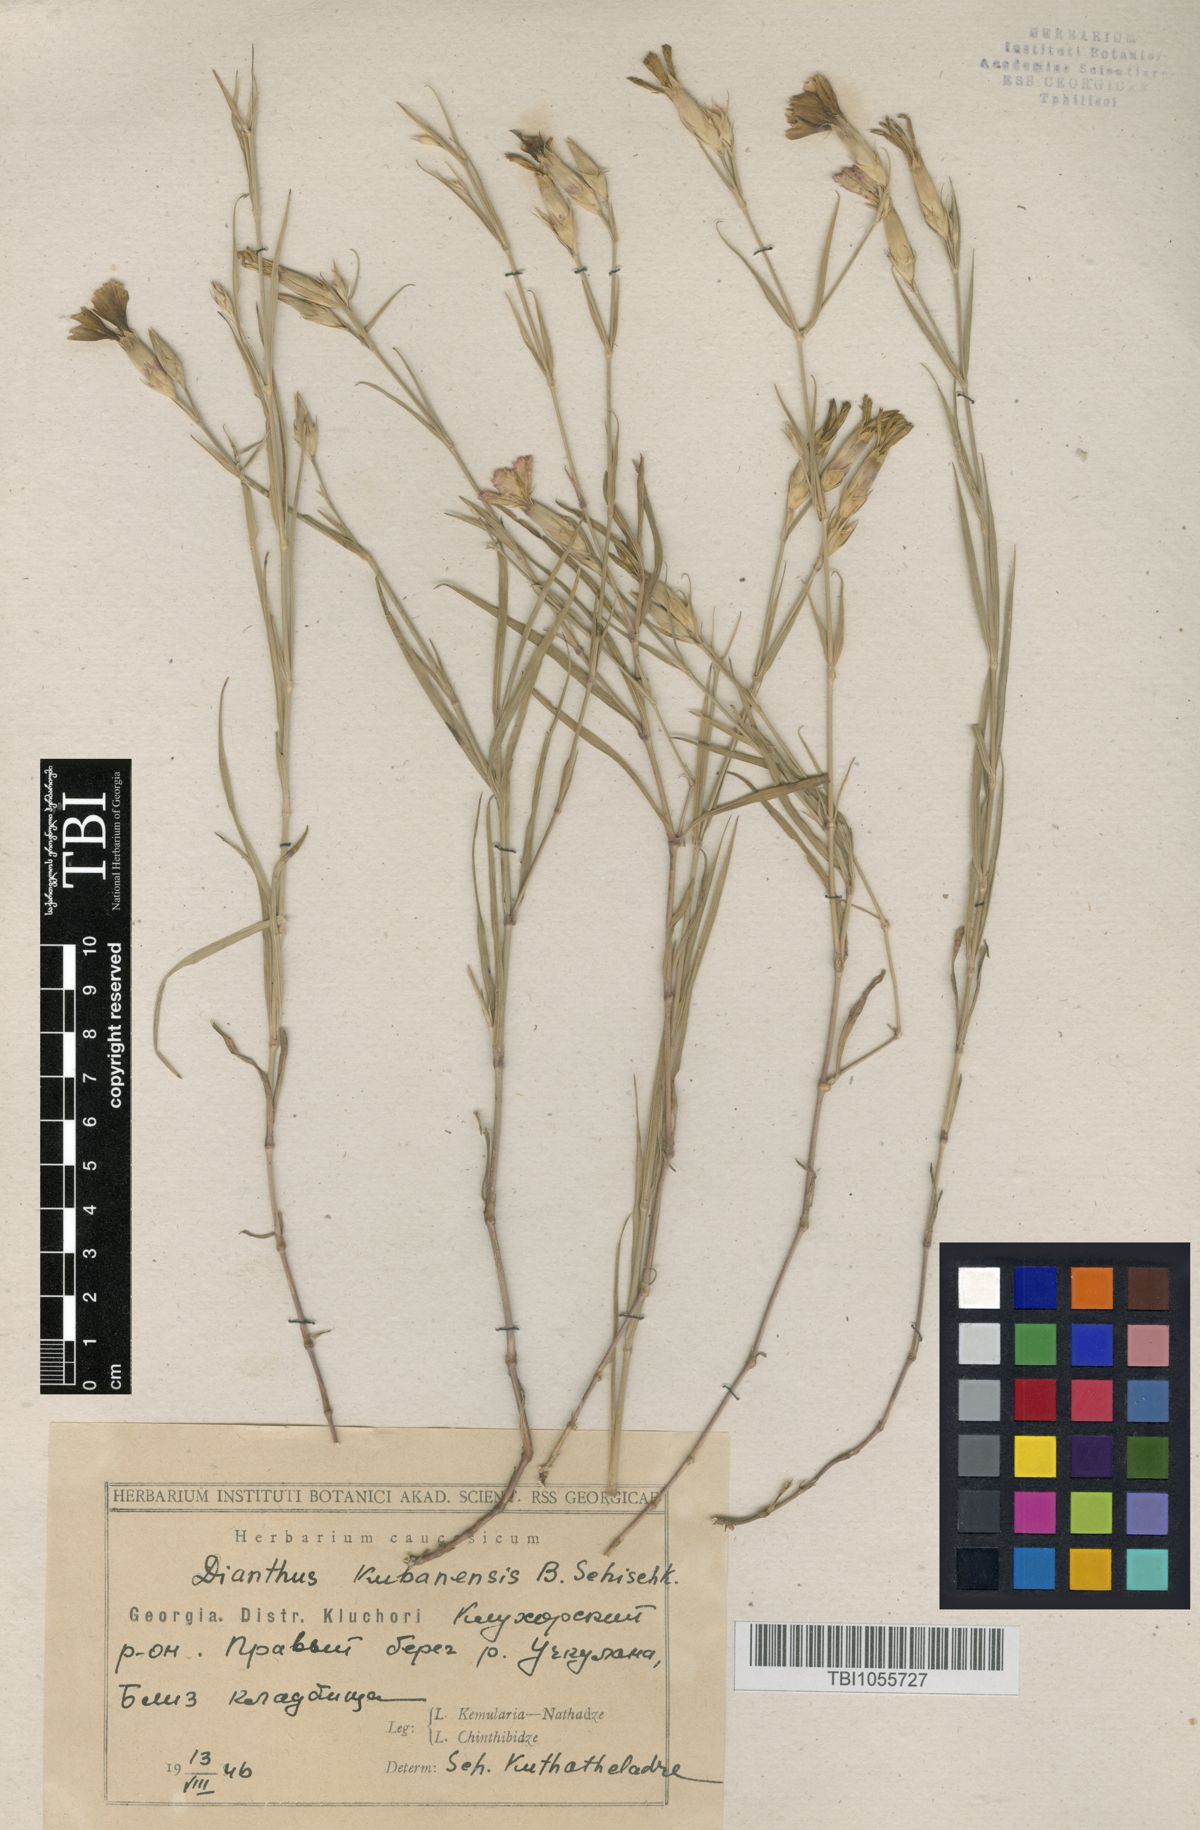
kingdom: Plantae
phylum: Tracheophyta
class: Magnoliopsida
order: Caryophyllales
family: Caryophyllaceae
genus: Dianthus
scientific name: Dianthus
